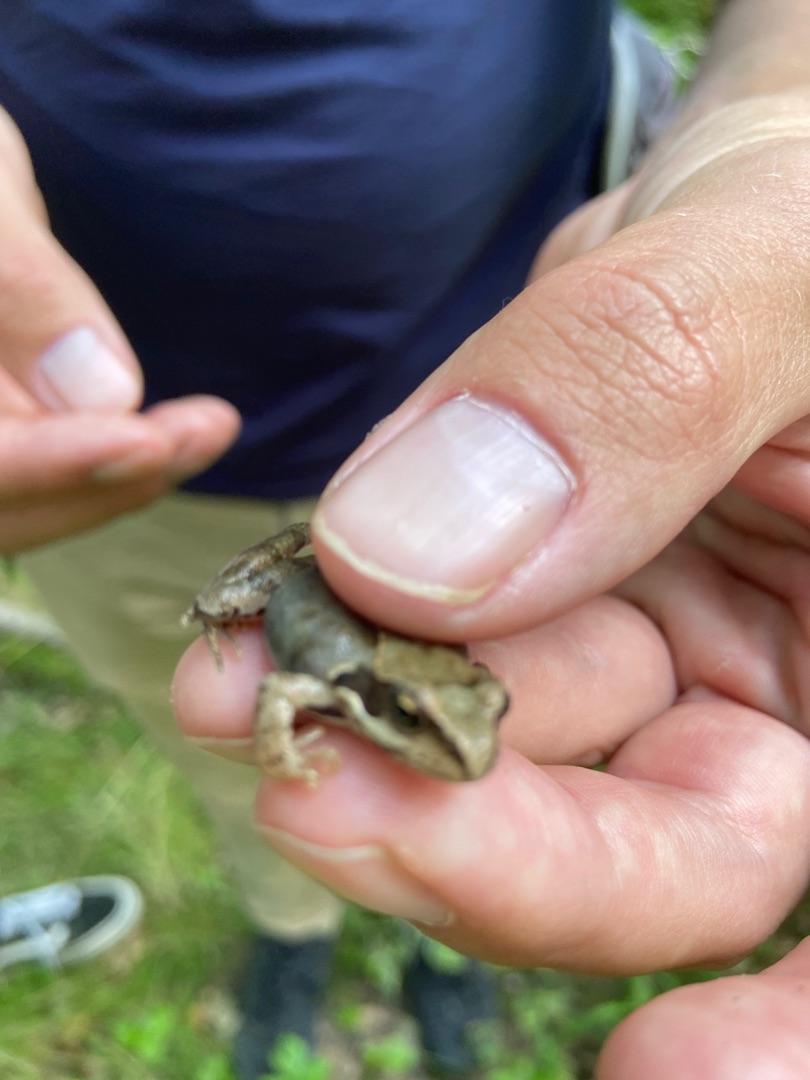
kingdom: Animalia
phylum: Chordata
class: Amphibia
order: Anura
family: Ranidae
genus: Rana
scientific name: Rana temporaria
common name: Butsnudet frø
